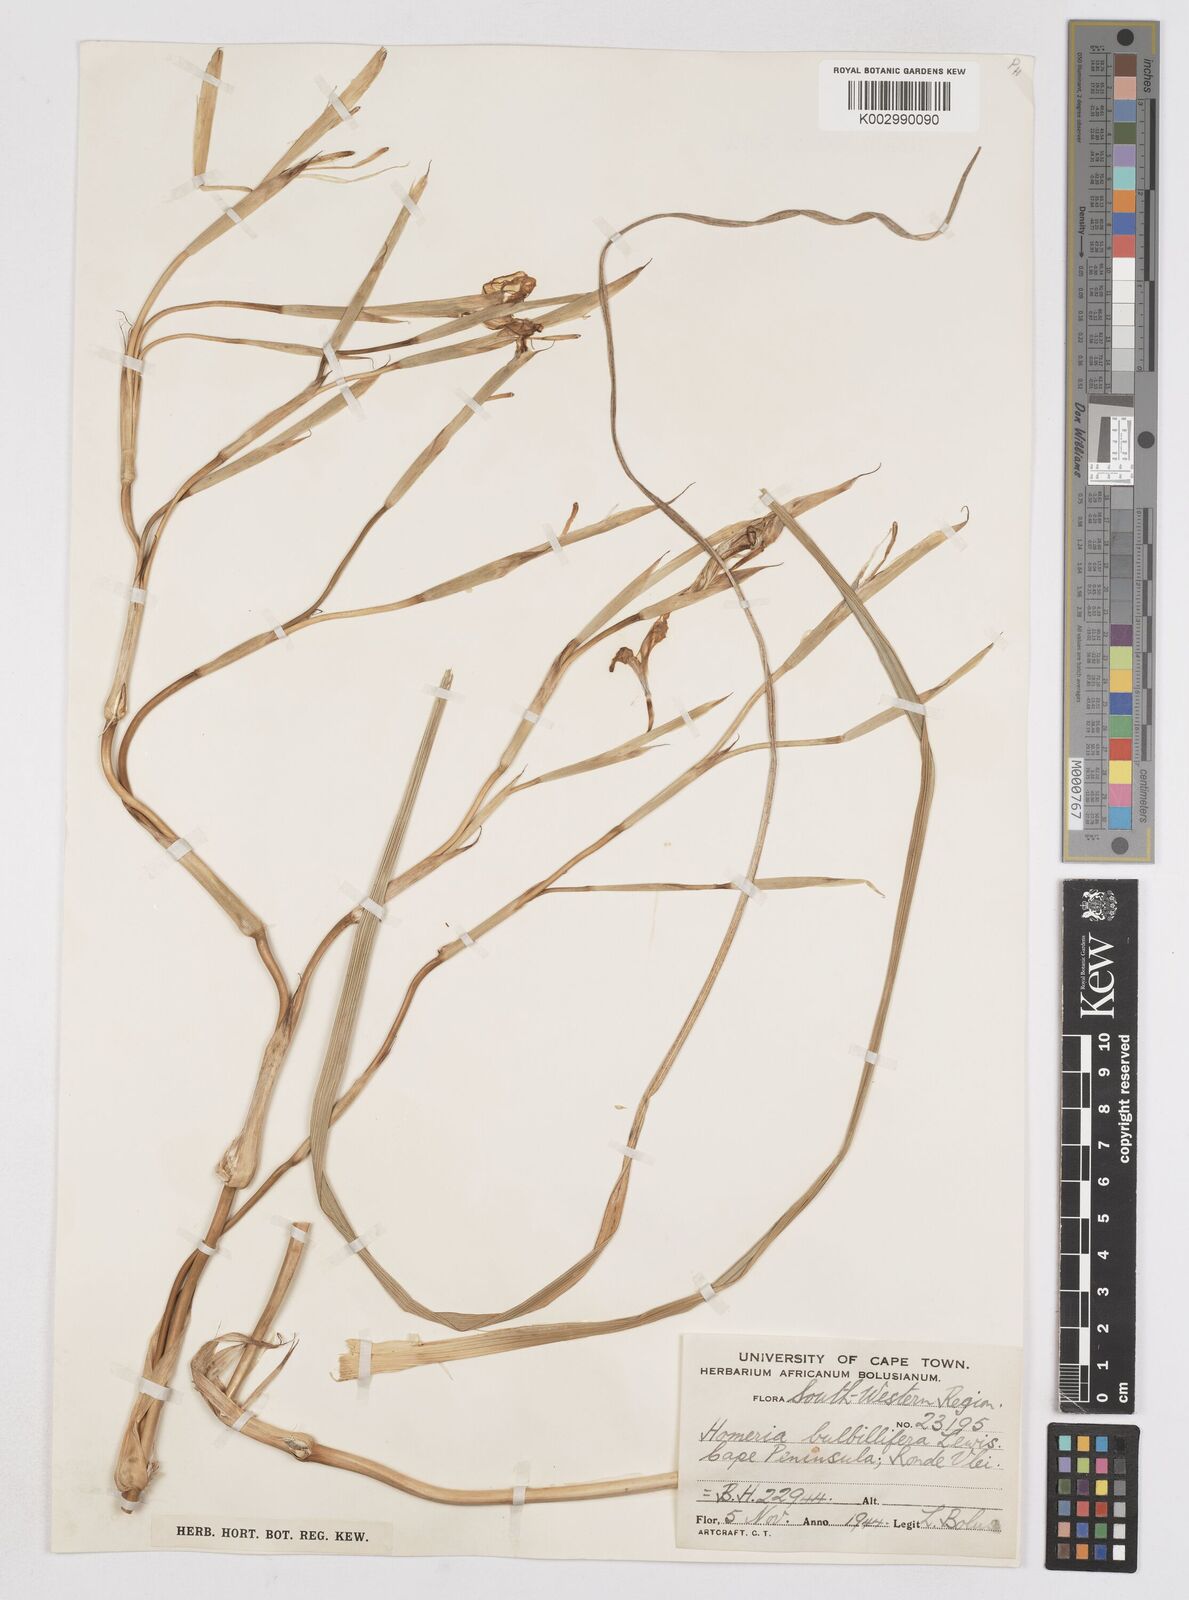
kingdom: Plantae
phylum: Tracheophyta
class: Liliopsida
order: Asparagales
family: Iridaceae
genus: Moraea
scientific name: Moraea bulbillifera
